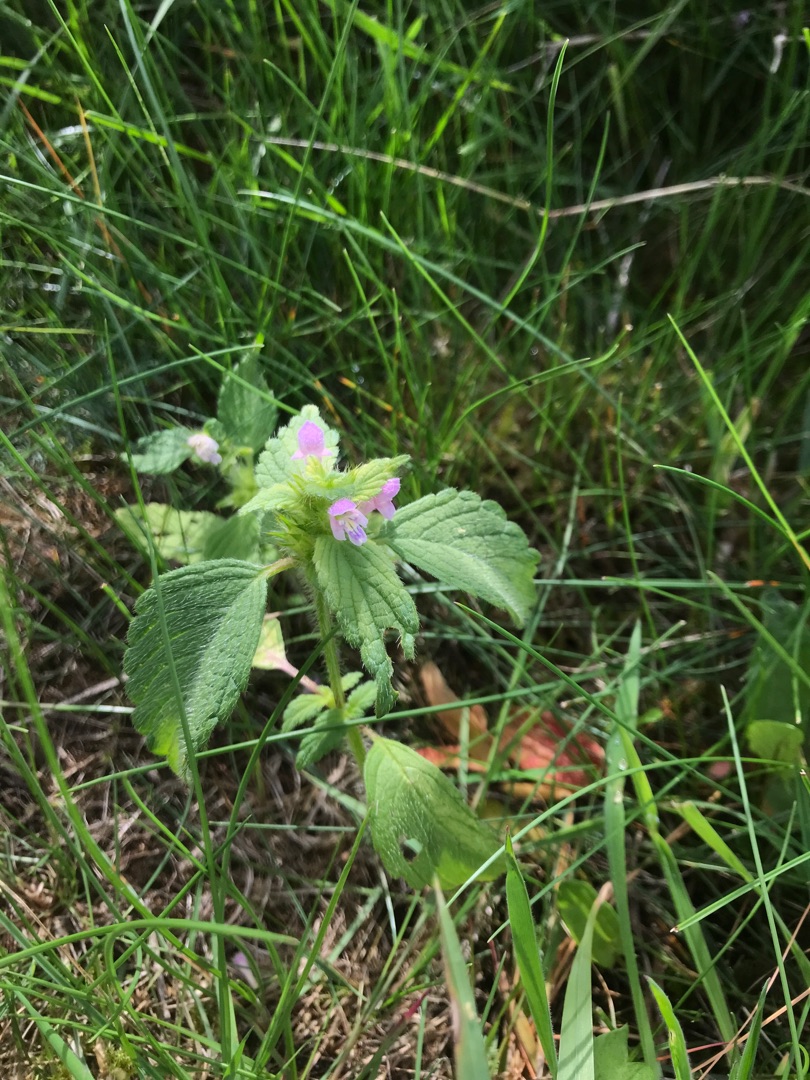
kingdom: Plantae
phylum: Tracheophyta
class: Magnoliopsida
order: Lamiales
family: Lamiaceae
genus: Galeopsis
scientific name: Galeopsis bifida
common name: Skov-hanekro
